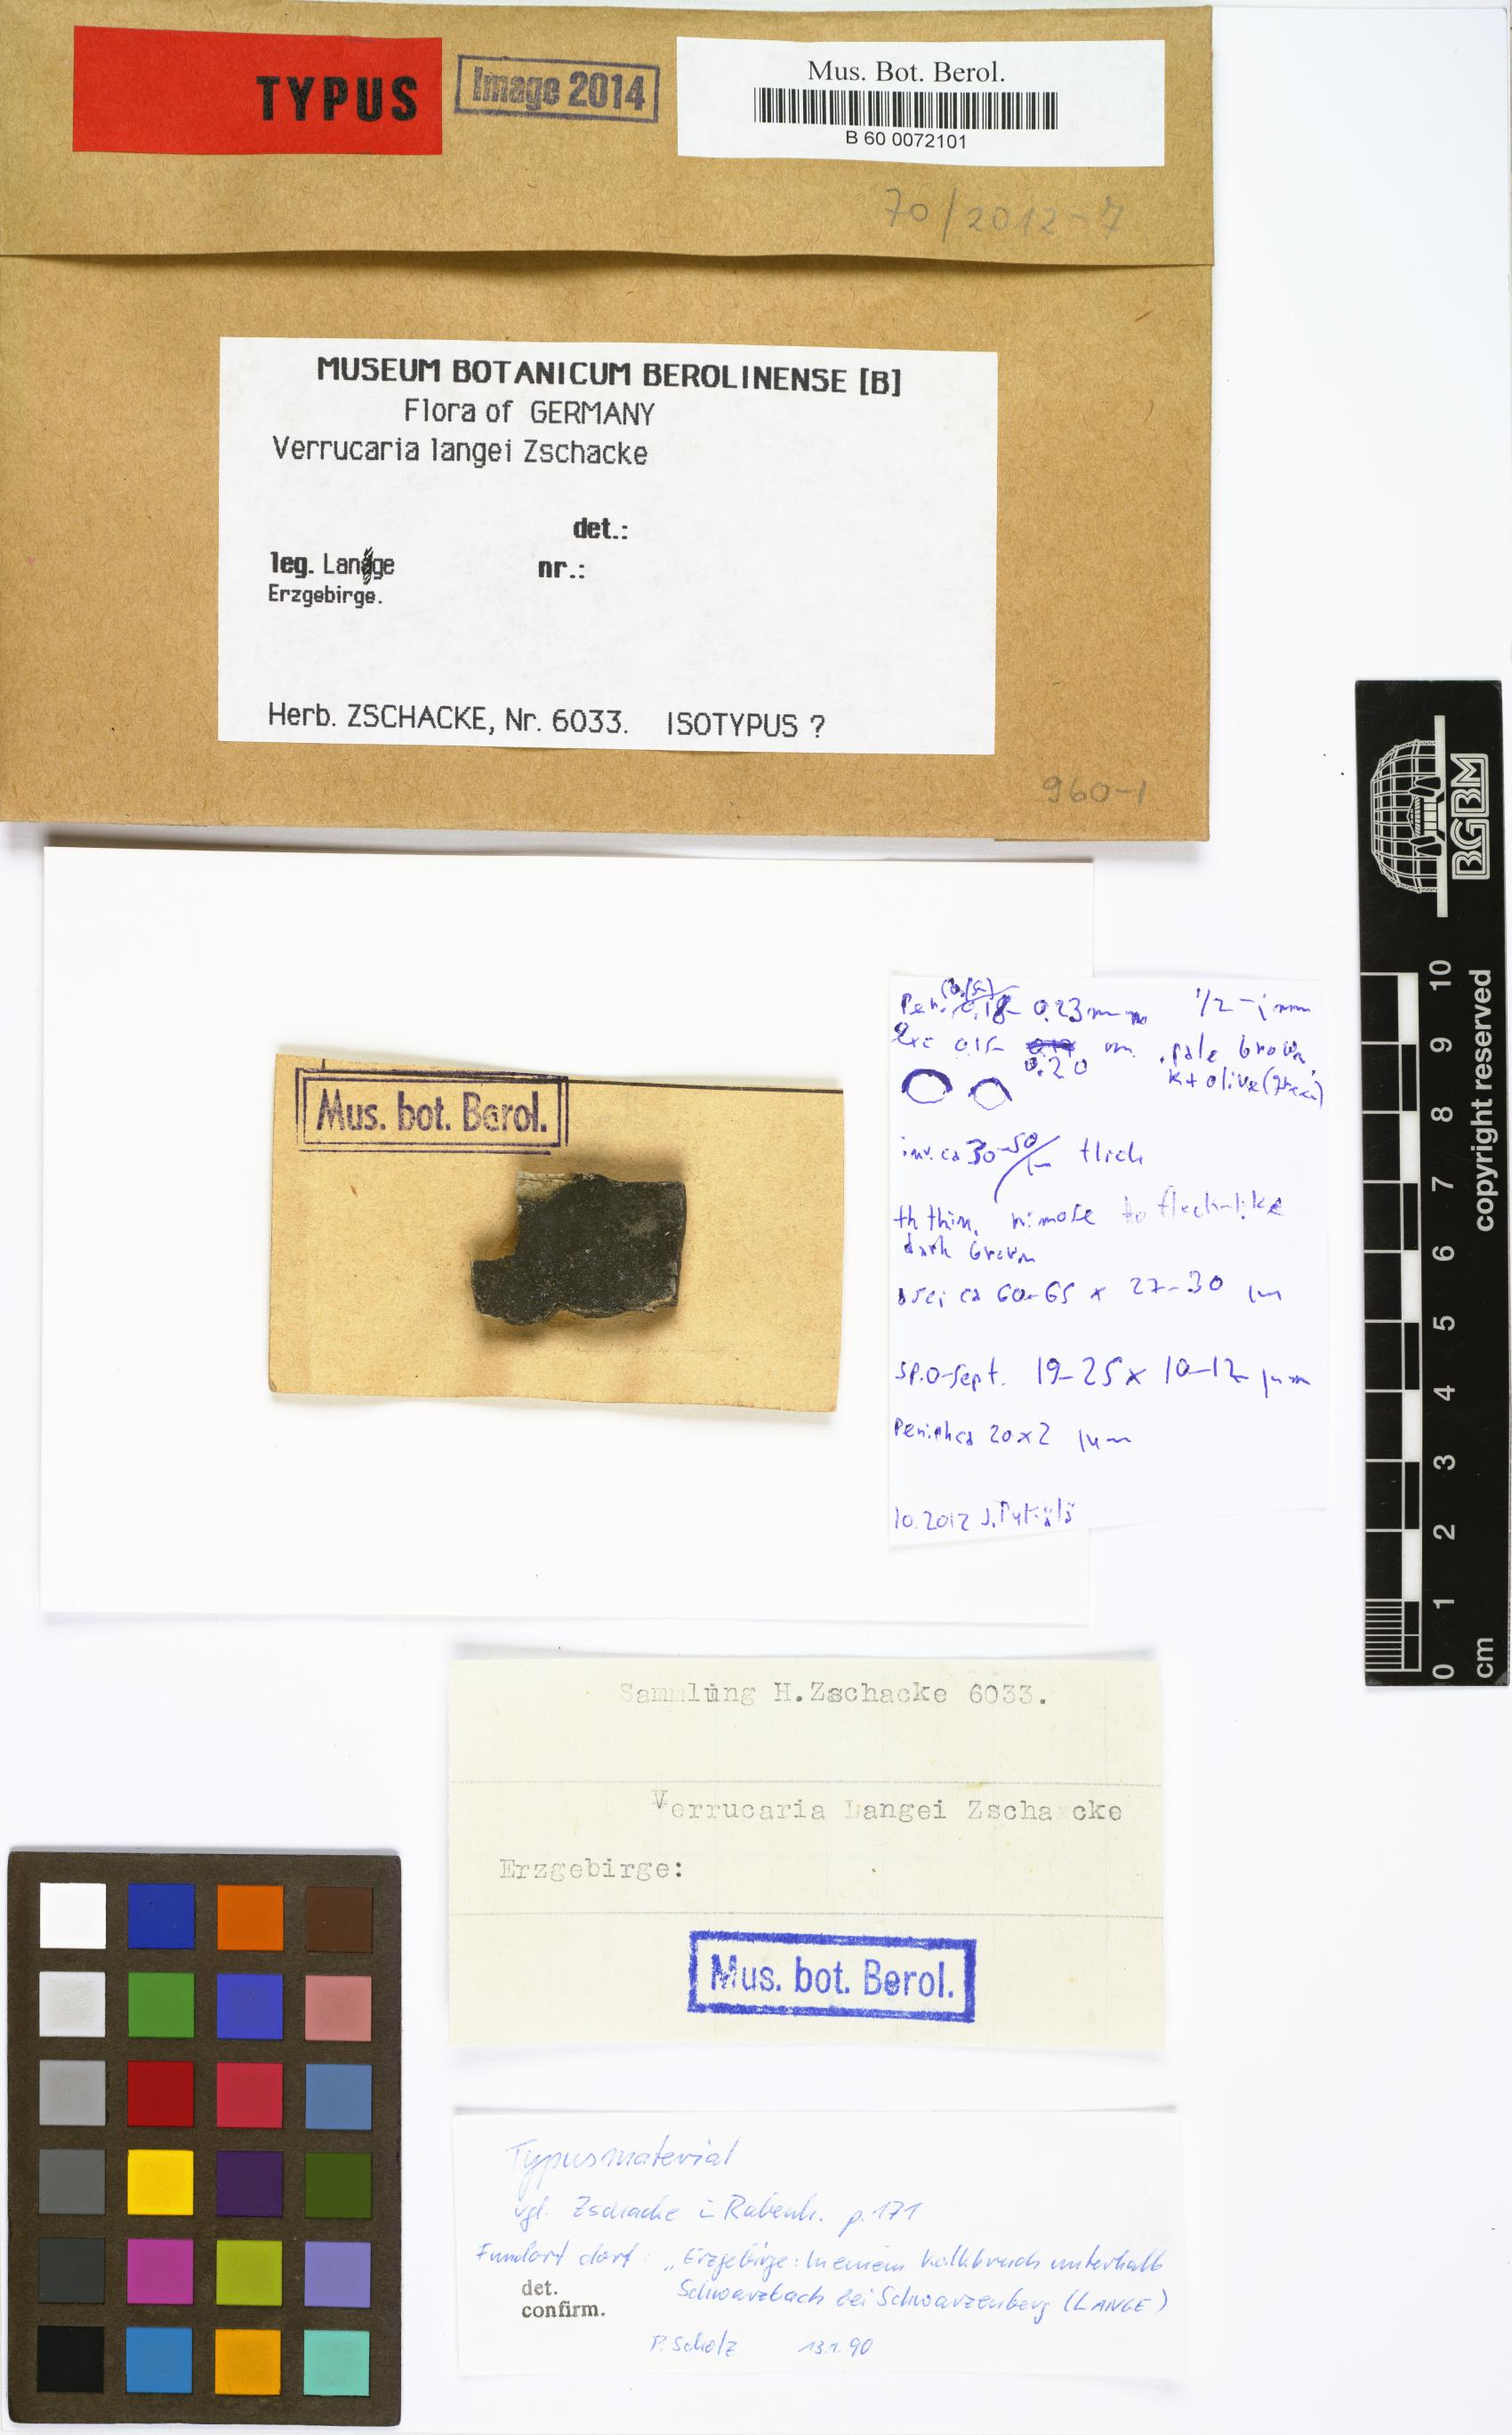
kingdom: Fungi
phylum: Ascomycota
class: Eurotiomycetes
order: Verrucariales
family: Verrucariaceae
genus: Verrucaria
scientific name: Verrucaria lyngei
